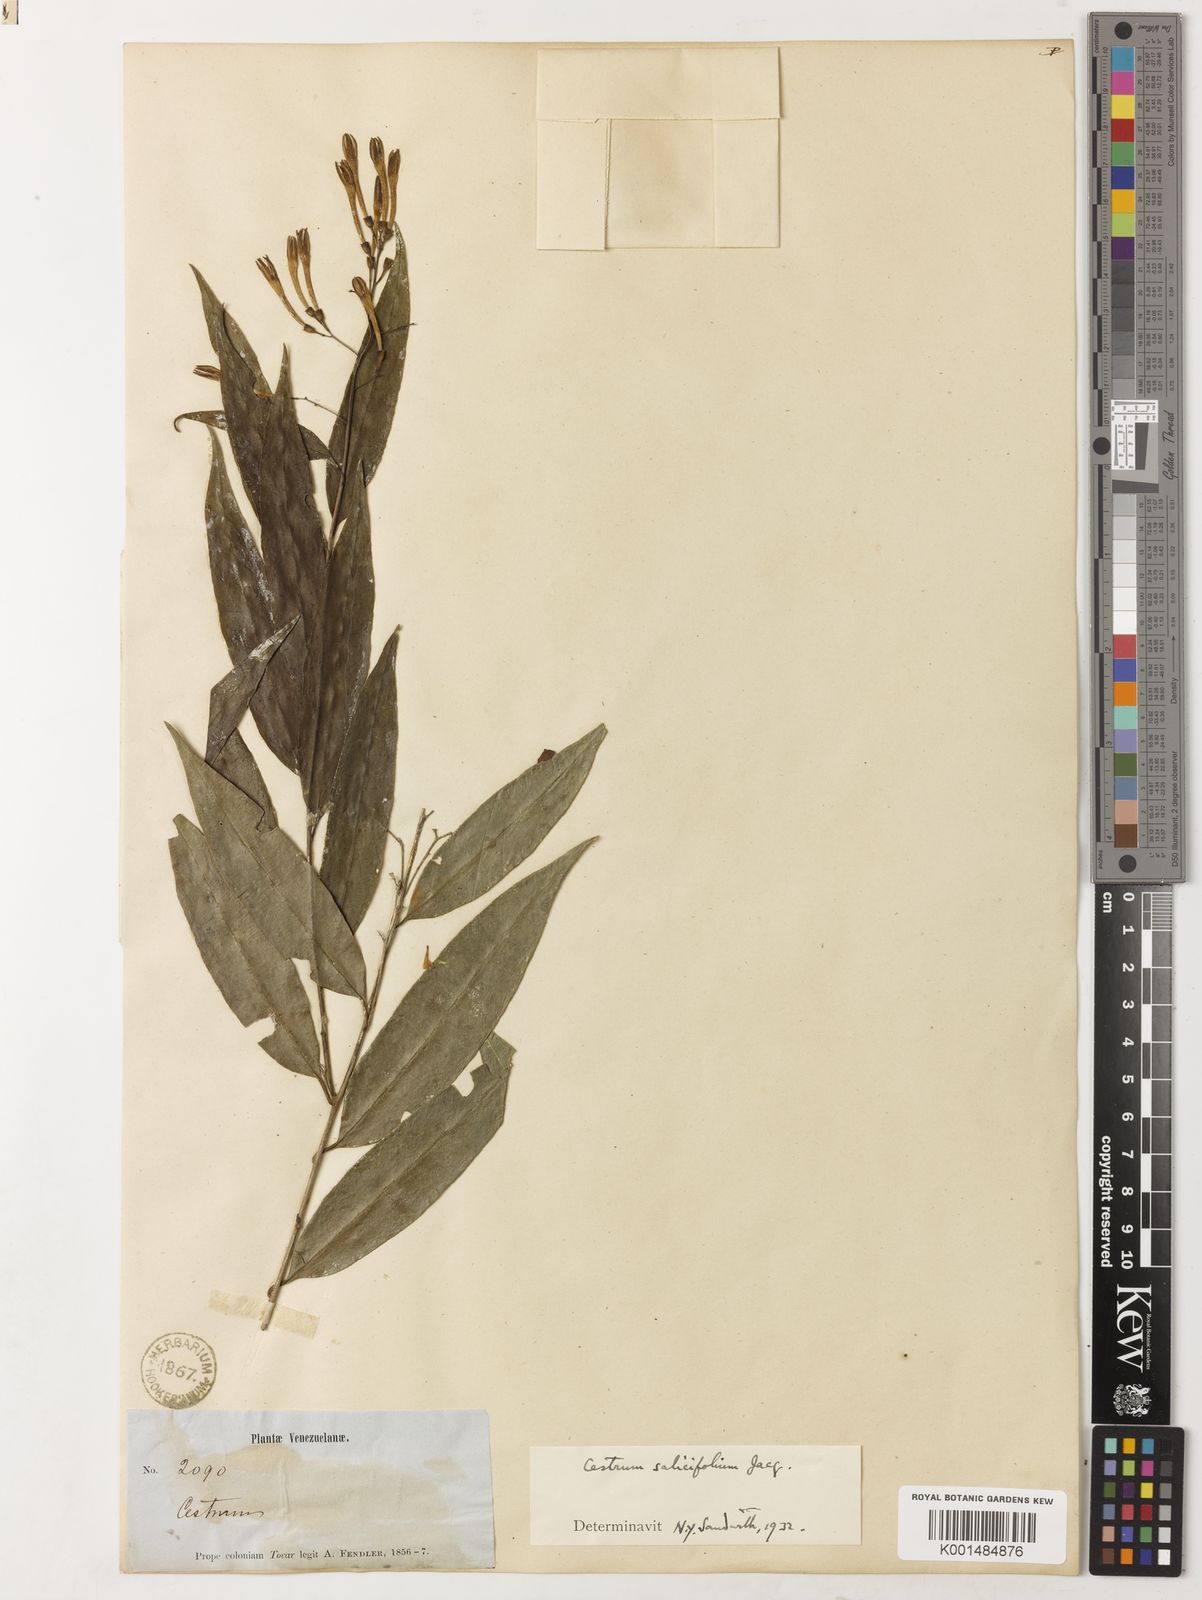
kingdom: Plantae
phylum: Tracheophyta
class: Magnoliopsida
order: Solanales
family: Solanaceae
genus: Cestrum
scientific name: Cestrum salicifolium
